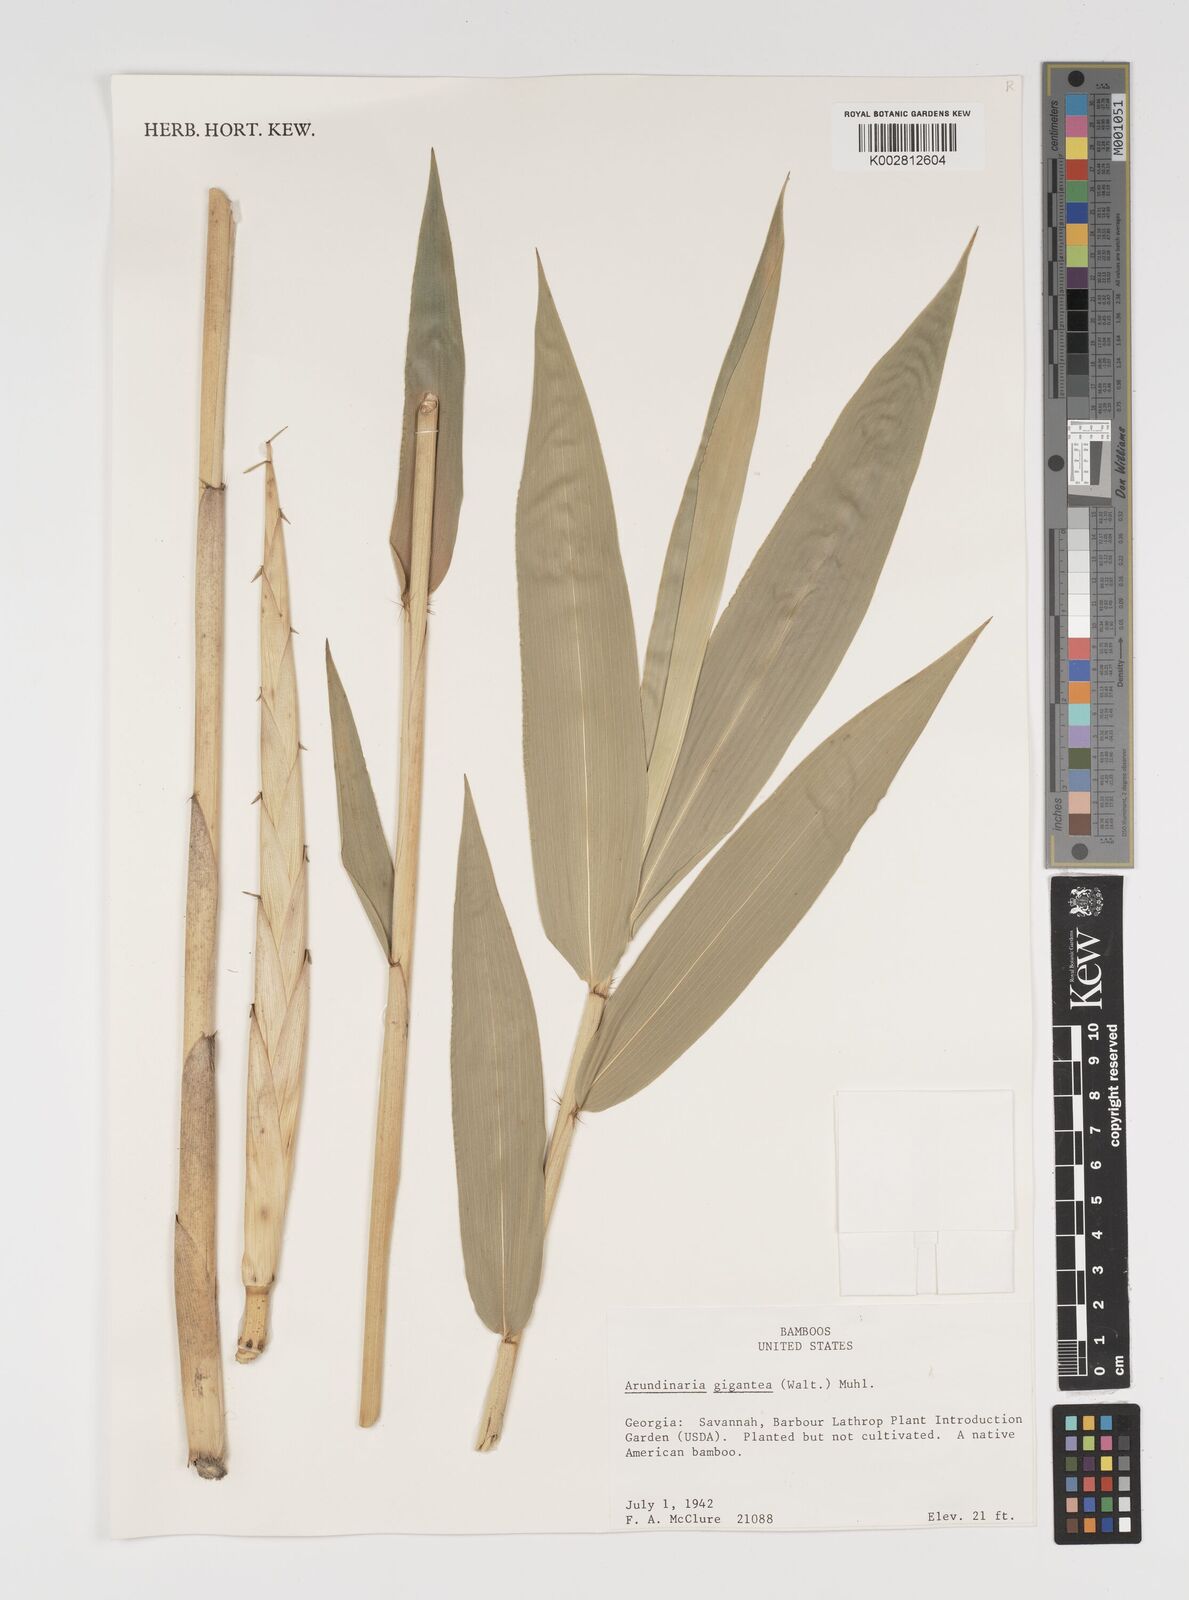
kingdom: Plantae
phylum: Tracheophyta
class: Liliopsida
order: Poales
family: Poaceae
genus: Arundinaria
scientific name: Arundinaria gigantea
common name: Giant cane
